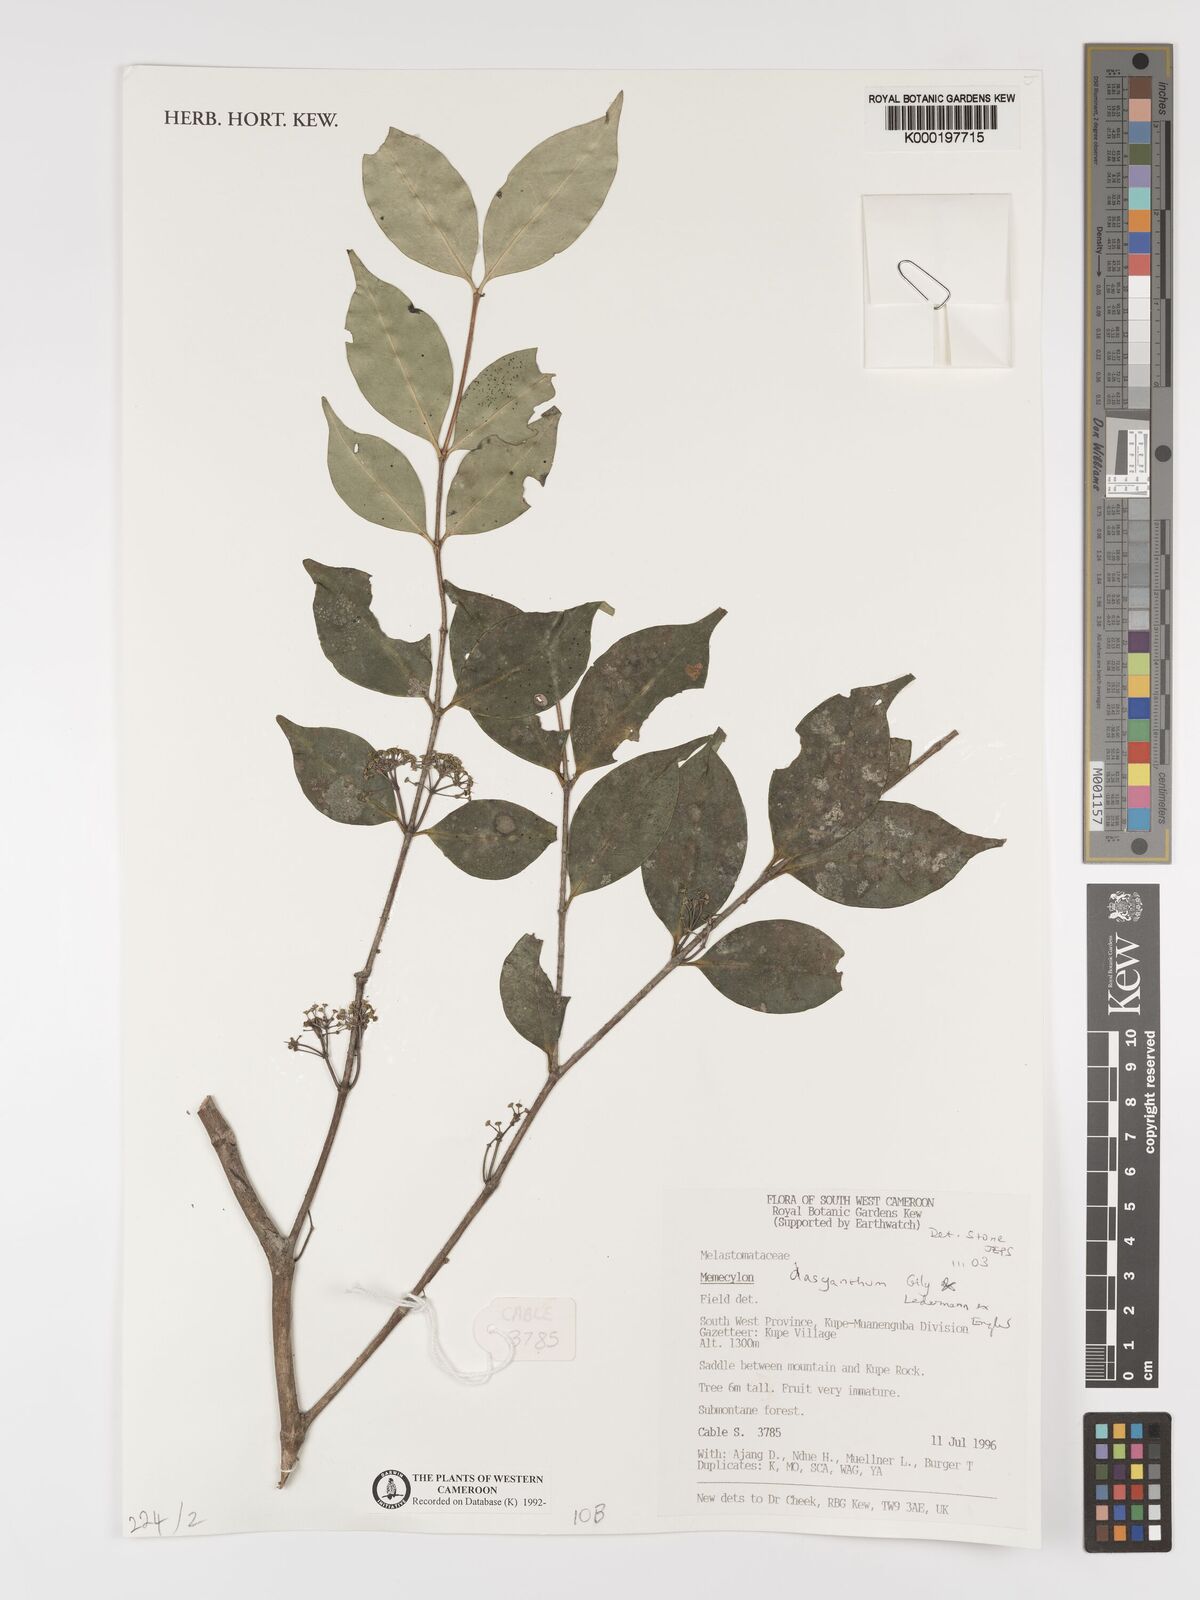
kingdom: Plantae
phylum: Tracheophyta
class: Magnoliopsida
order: Myrtales
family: Melastomataceae
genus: Memecylon
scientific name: Memecylon dasyanthum
